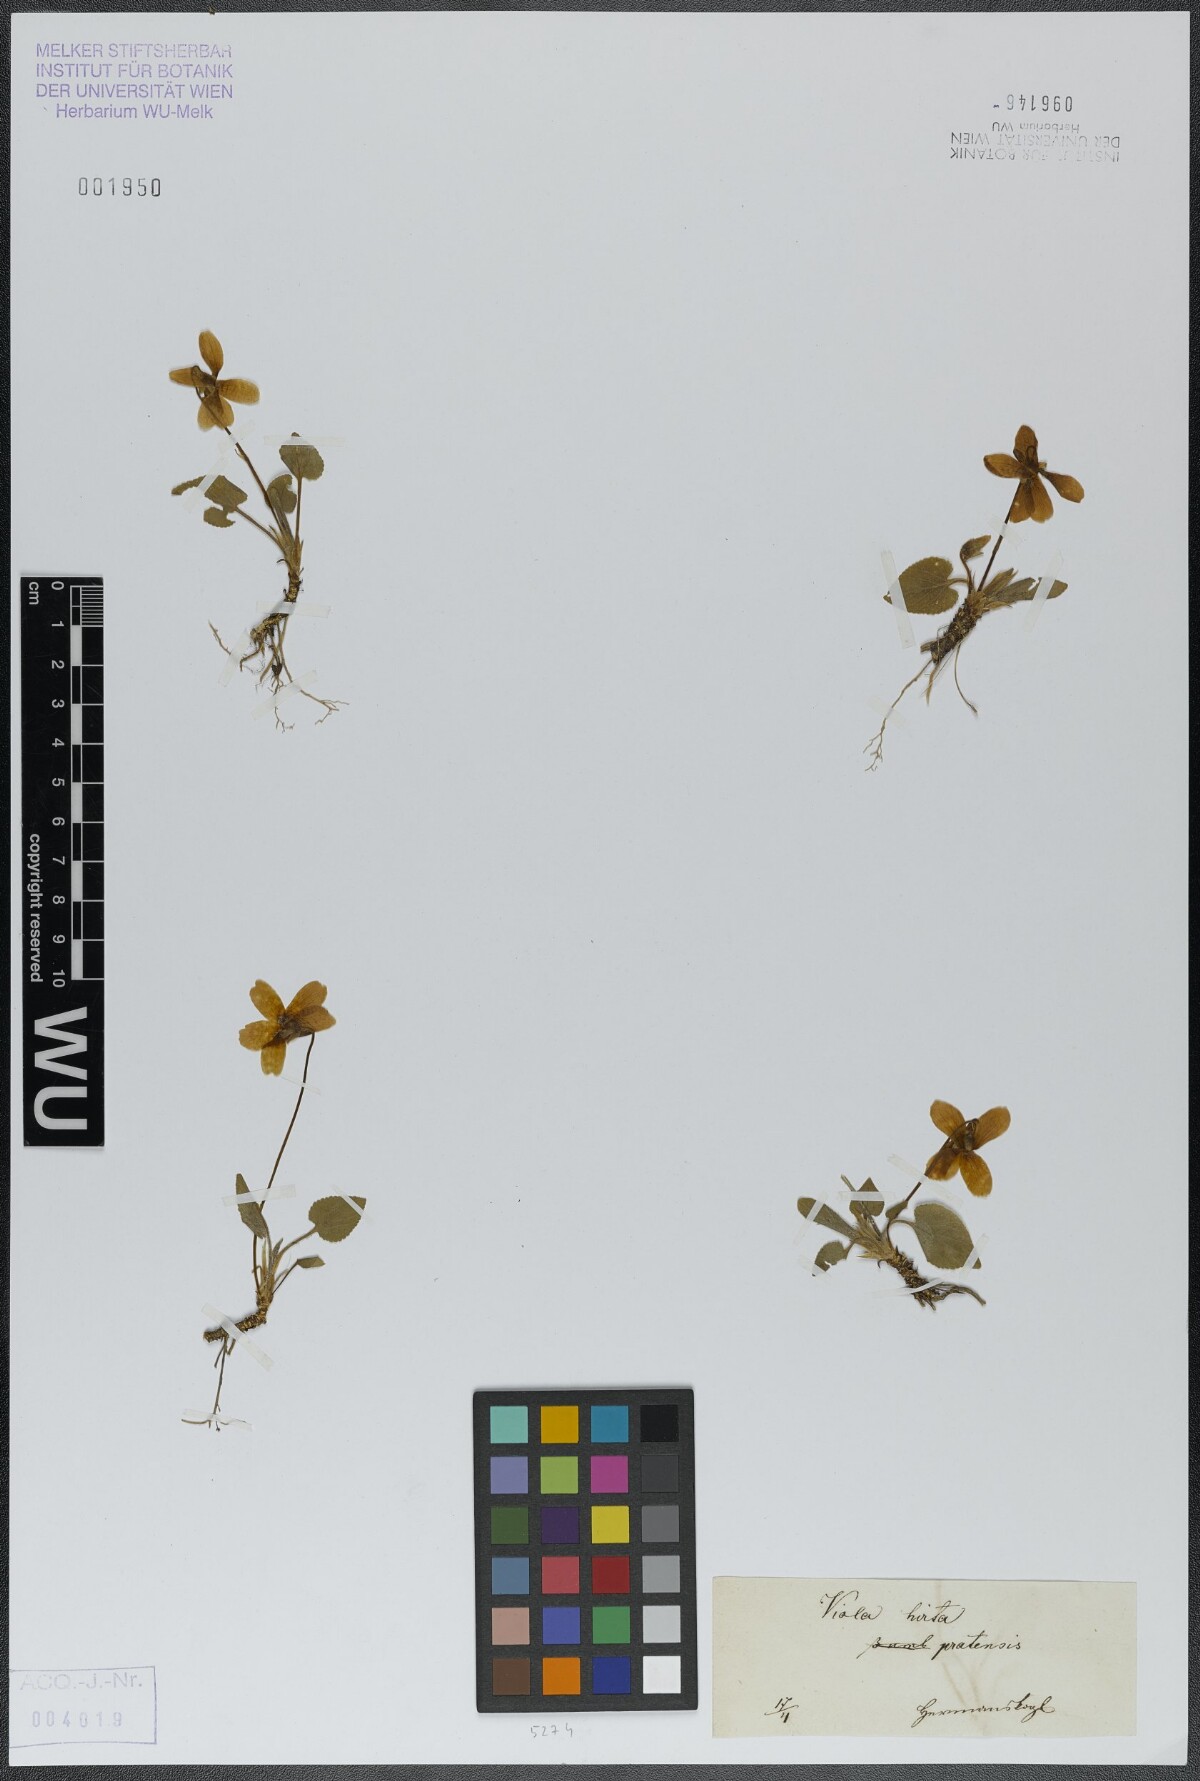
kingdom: Plantae
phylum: Tracheophyta
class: Magnoliopsida
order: Malpighiales
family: Violaceae
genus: Viola
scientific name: Viola hirta
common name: Hairy violet
